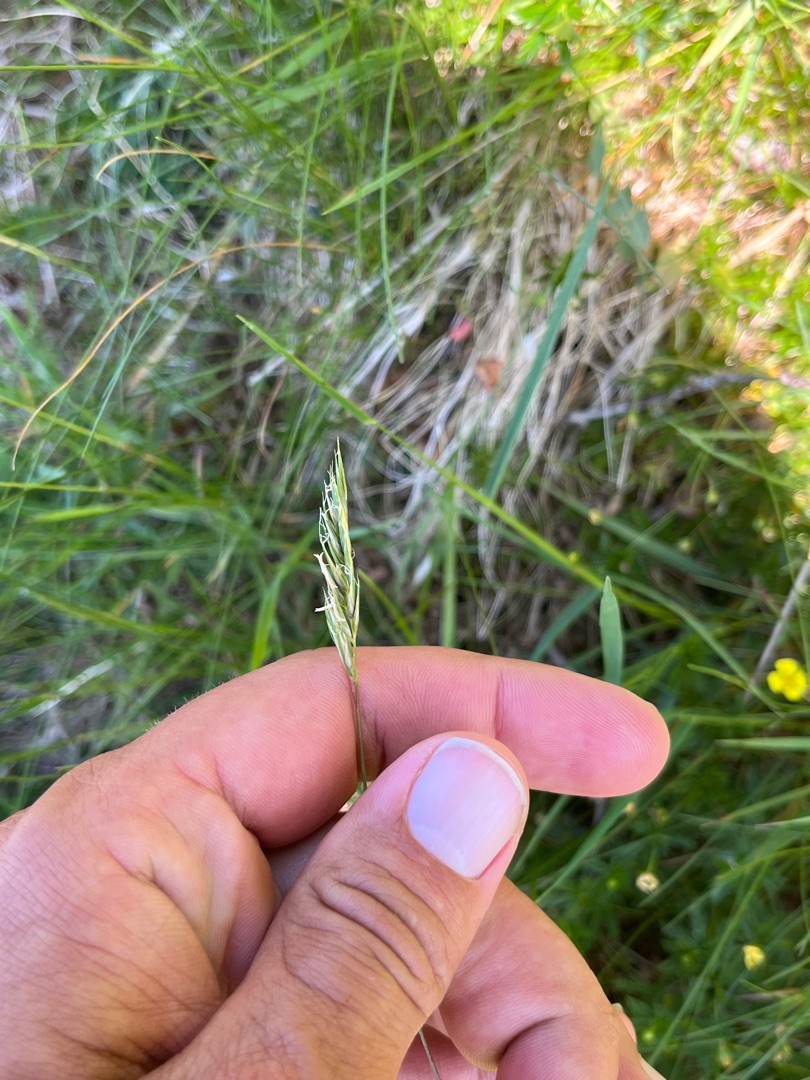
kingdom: Plantae
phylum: Tracheophyta
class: Liliopsida
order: Poales
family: Poaceae
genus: Anthoxanthum
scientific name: Anthoxanthum odoratum
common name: Vellugtende gulaks
